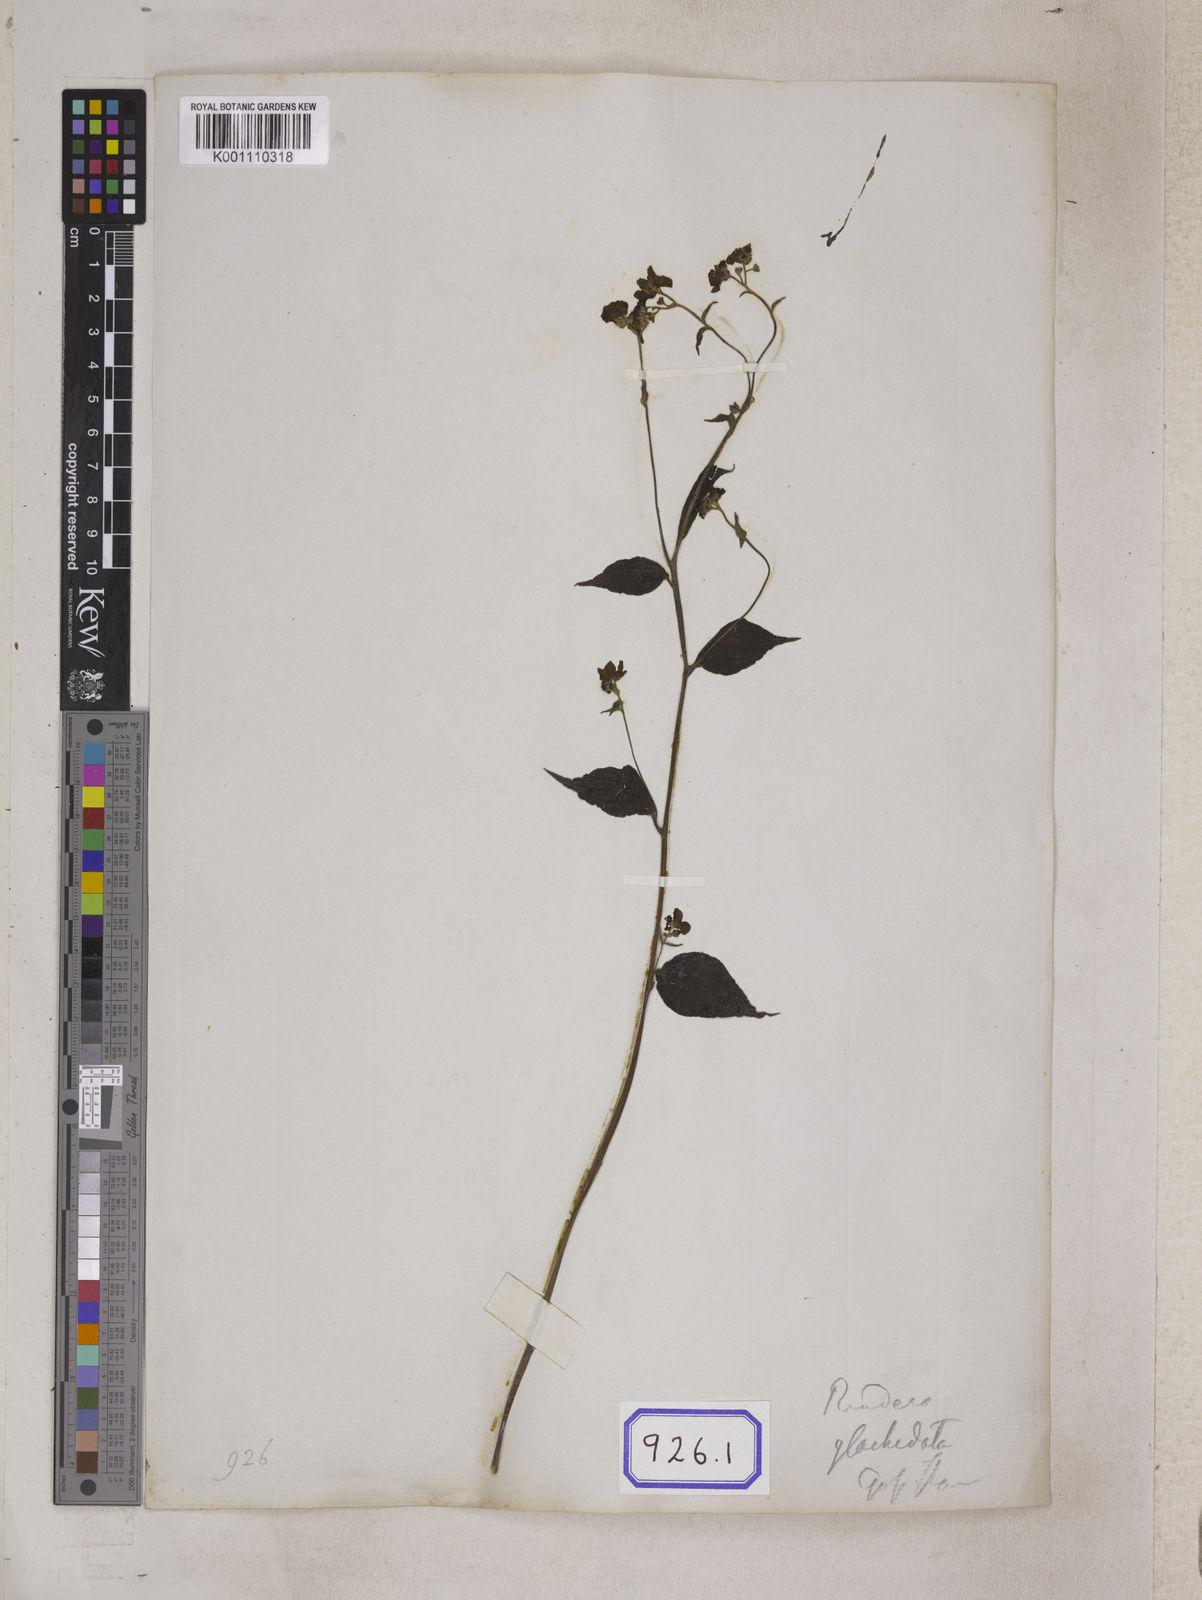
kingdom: Plantae
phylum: Tracheophyta
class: Magnoliopsida
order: Boraginales
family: Boraginaceae
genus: Hackelia
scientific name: Hackelia uncinata
